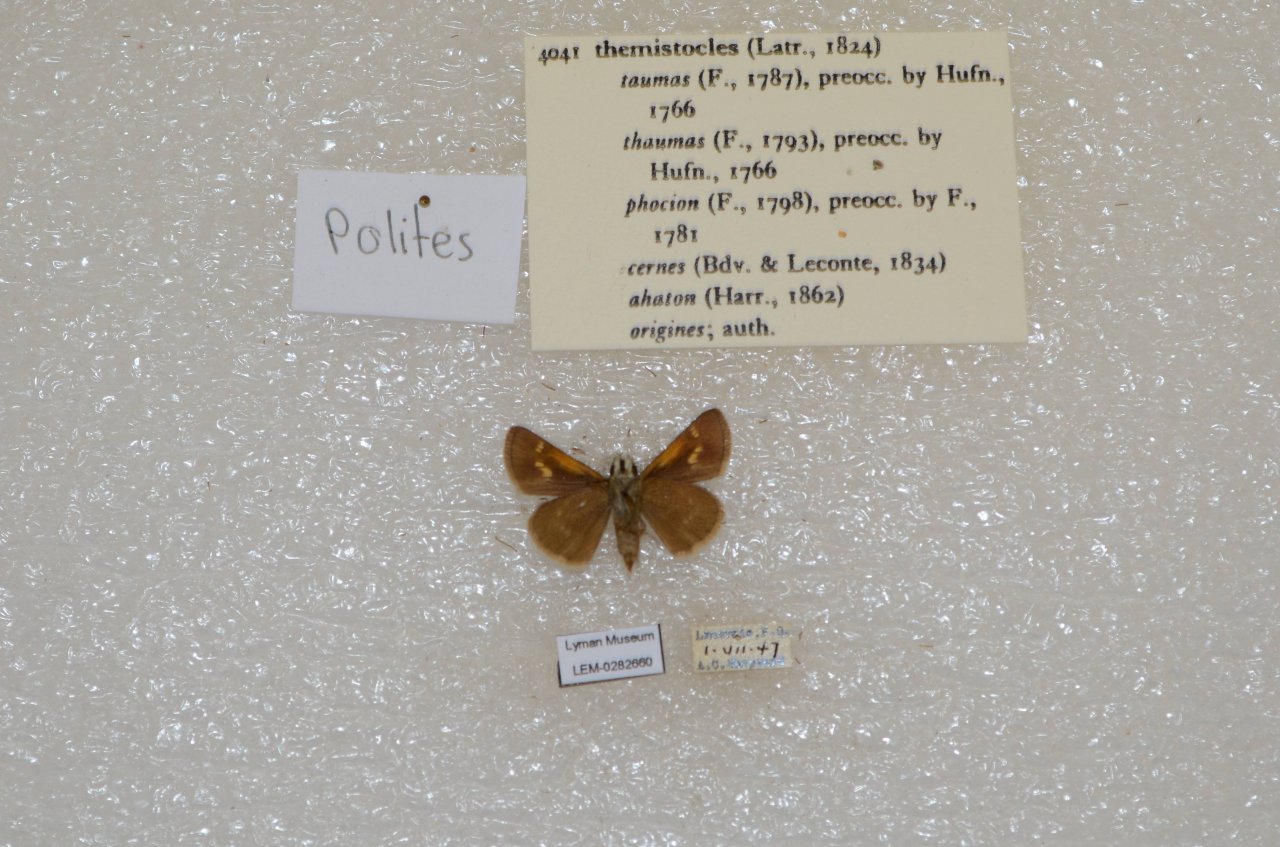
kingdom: Animalia
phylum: Arthropoda
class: Insecta
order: Lepidoptera
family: Hesperiidae
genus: Polites
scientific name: Polites themistocles
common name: Tawny-edged Skipper
